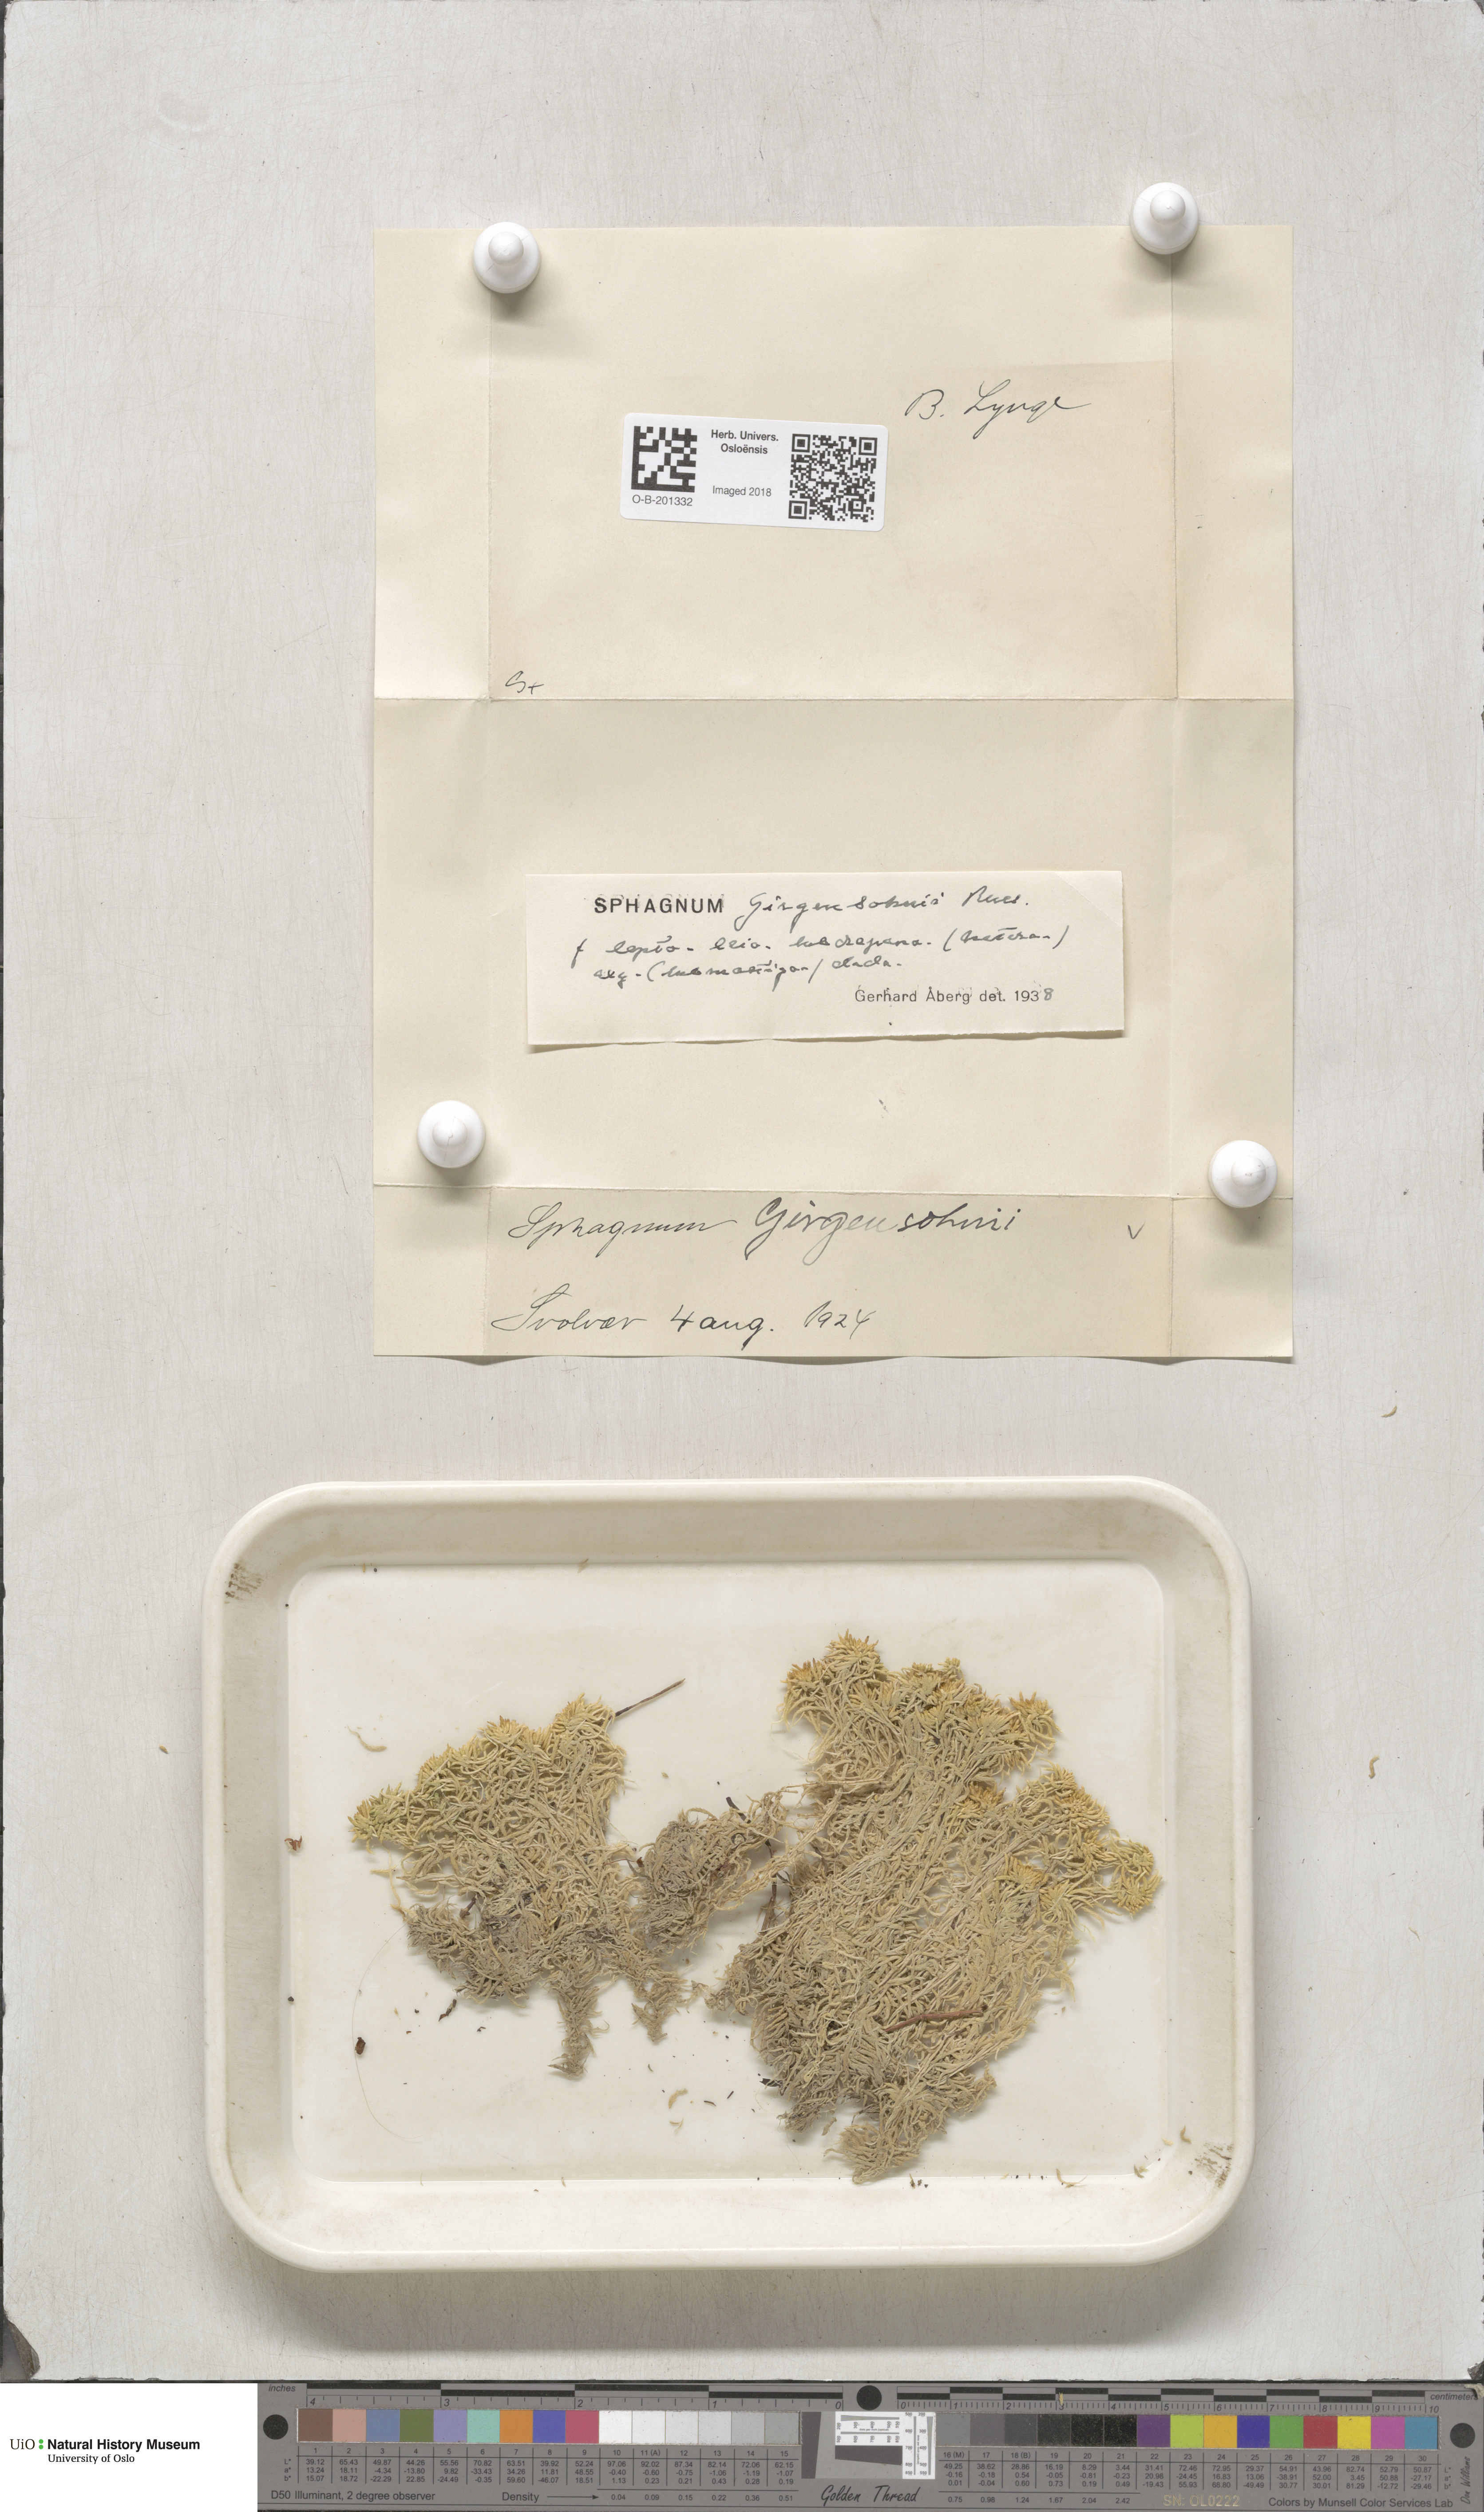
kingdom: Plantae
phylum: Bryophyta
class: Sphagnopsida
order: Sphagnales
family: Sphagnaceae
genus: Sphagnum
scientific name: Sphagnum girgensohnii
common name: Girgensohn's peat moss
